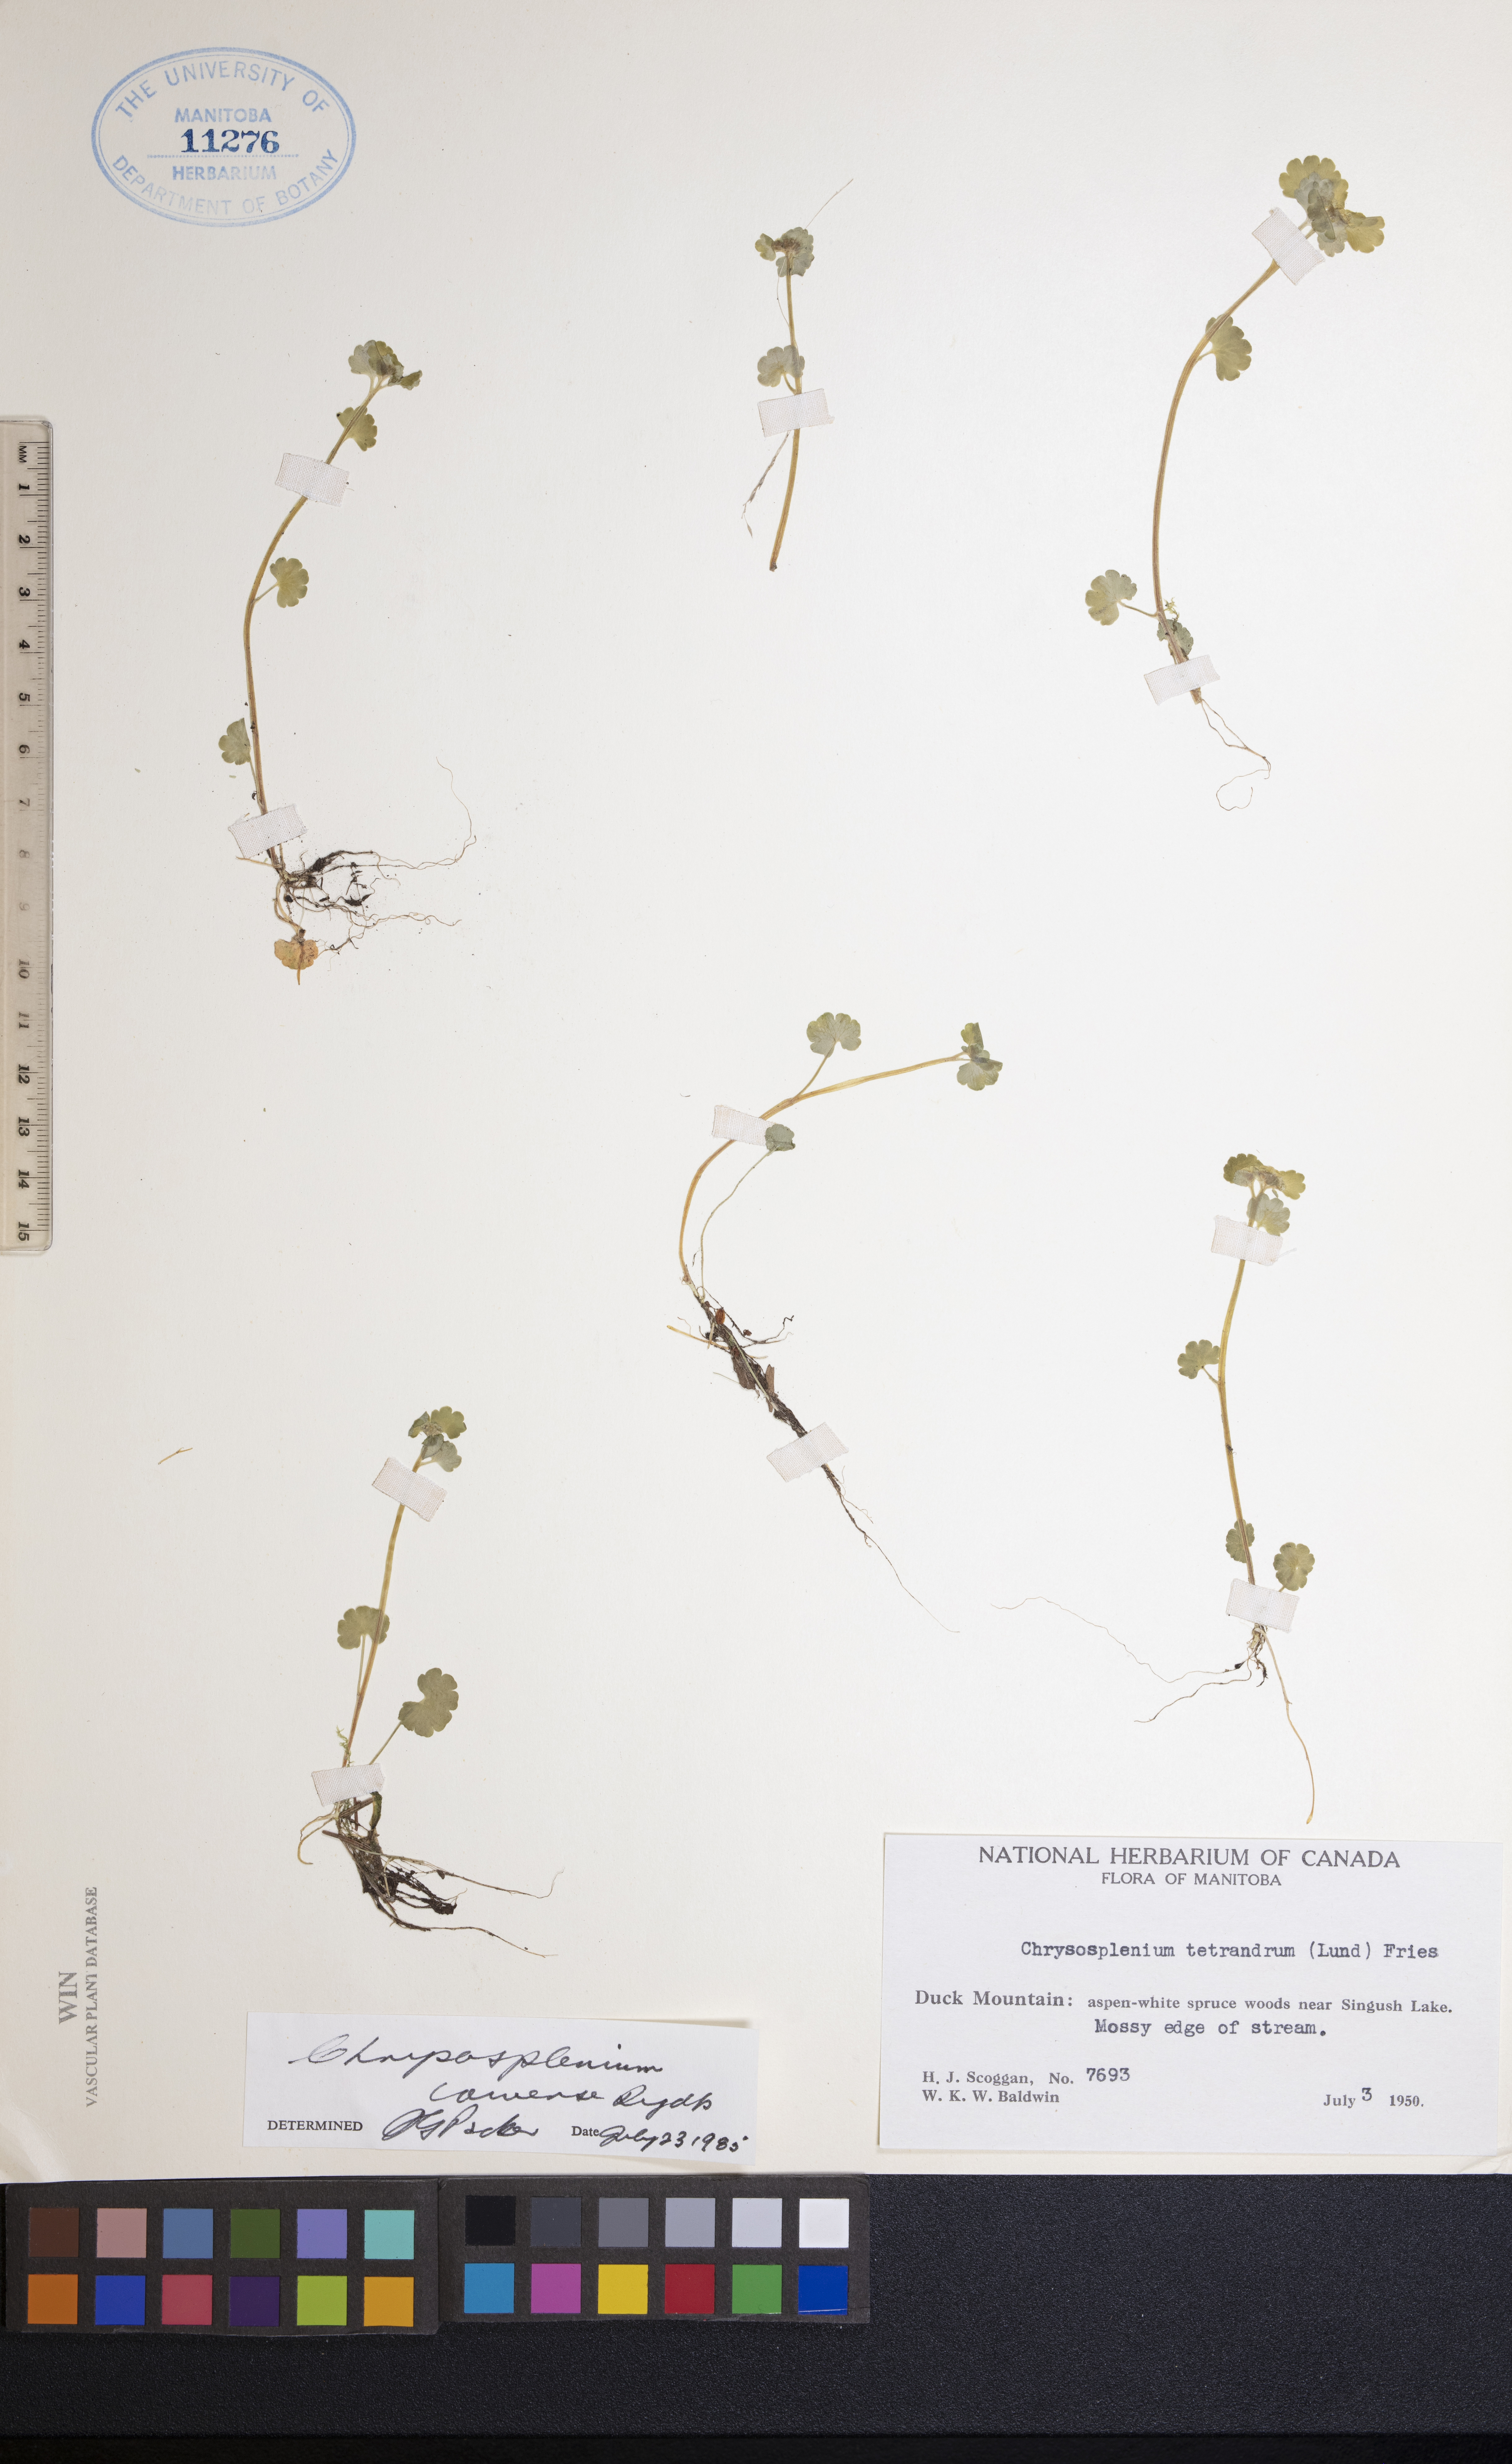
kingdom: Plantae
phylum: Tracheophyta
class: Magnoliopsida
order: Saxifragales
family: Saxifragaceae
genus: Chrysosplenium
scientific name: Chrysosplenium iowense
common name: Iowa golden carpet
